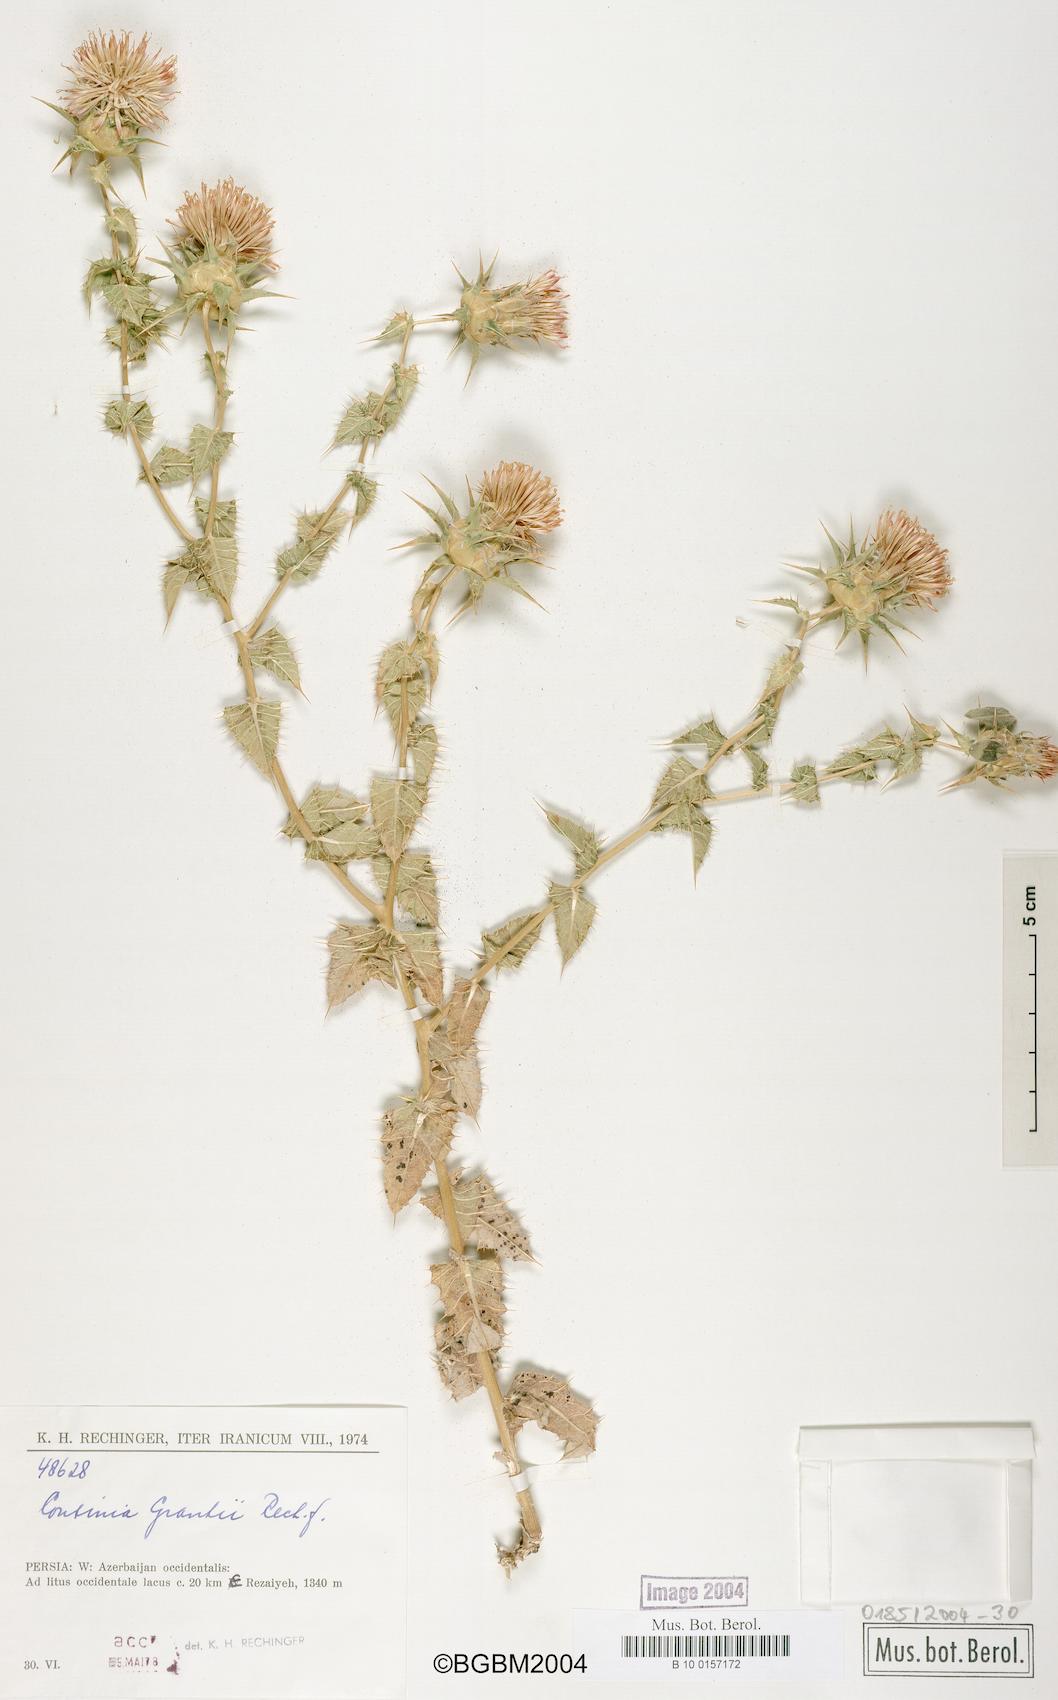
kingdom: Plantae
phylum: Tracheophyta
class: Magnoliopsida
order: Asterales
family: Asteraceae
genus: Cousinia
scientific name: Cousinia grantii
